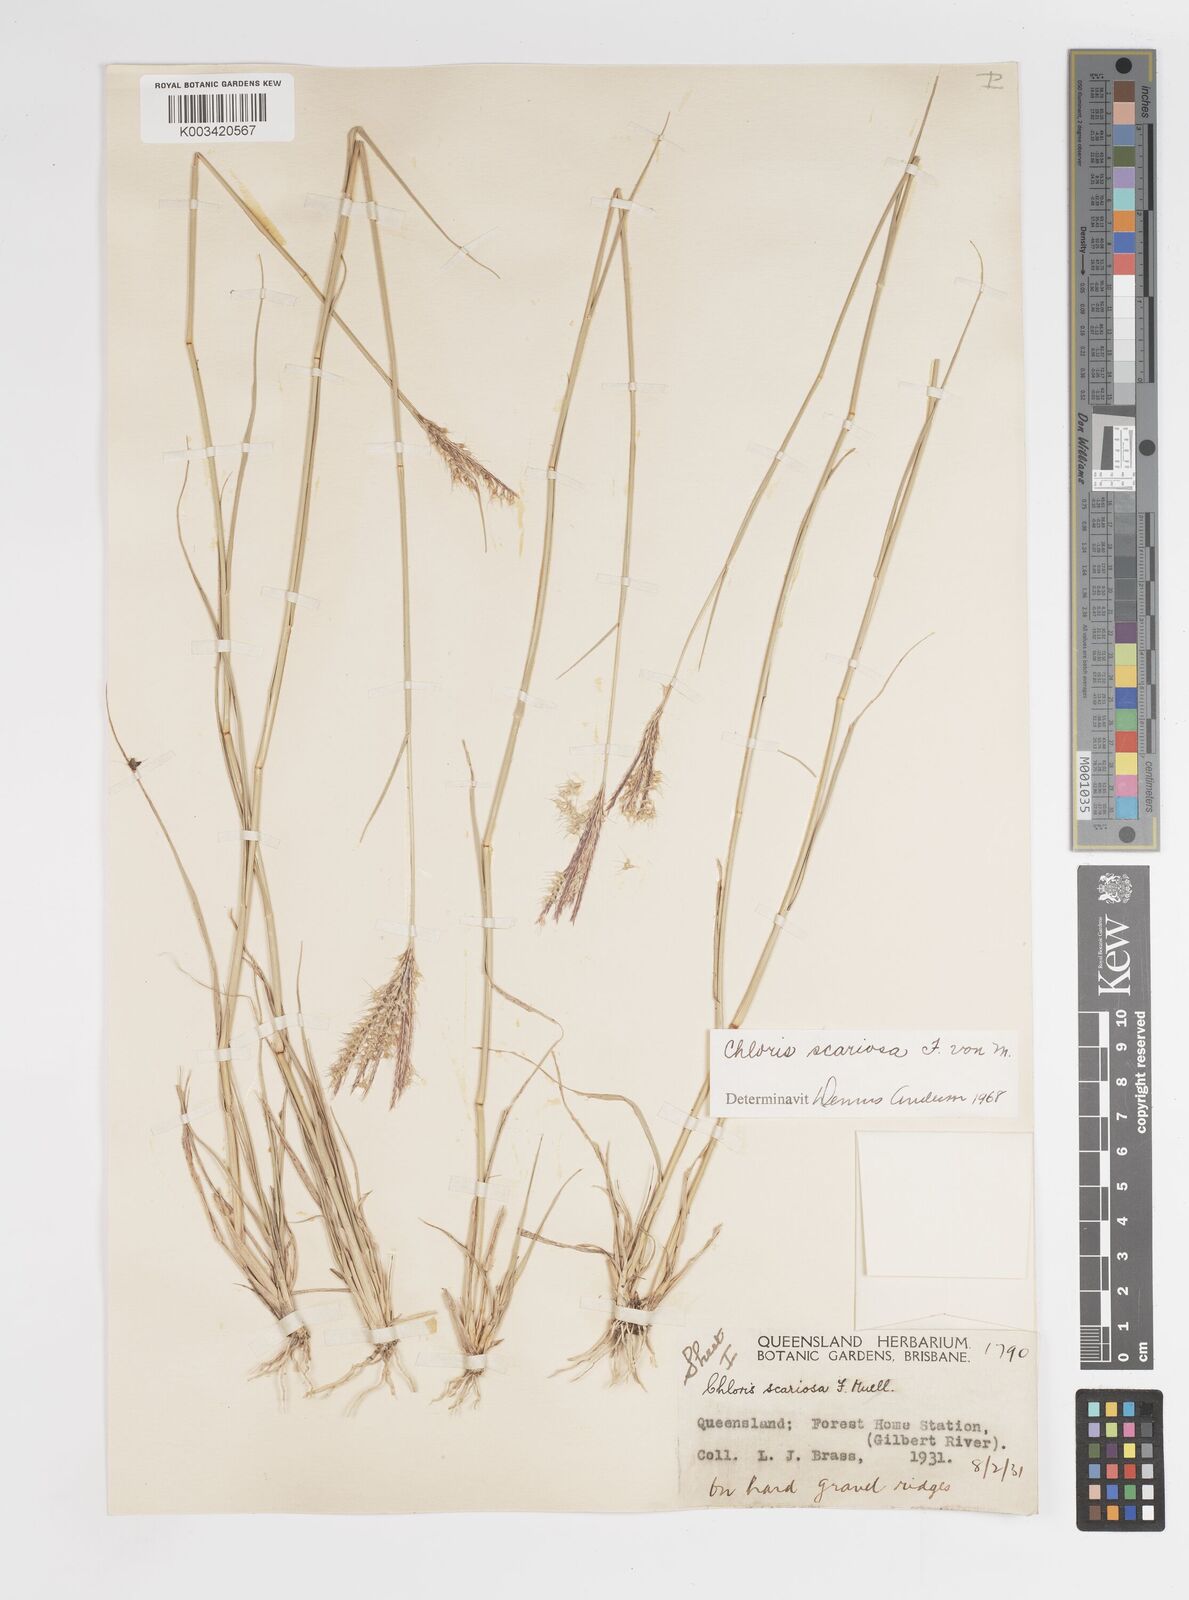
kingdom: Plantae
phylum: Tracheophyta
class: Liliopsida
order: Poales
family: Poaceae
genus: Oxychloris
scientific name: Oxychloris scariosa
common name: Winged windmill grass
